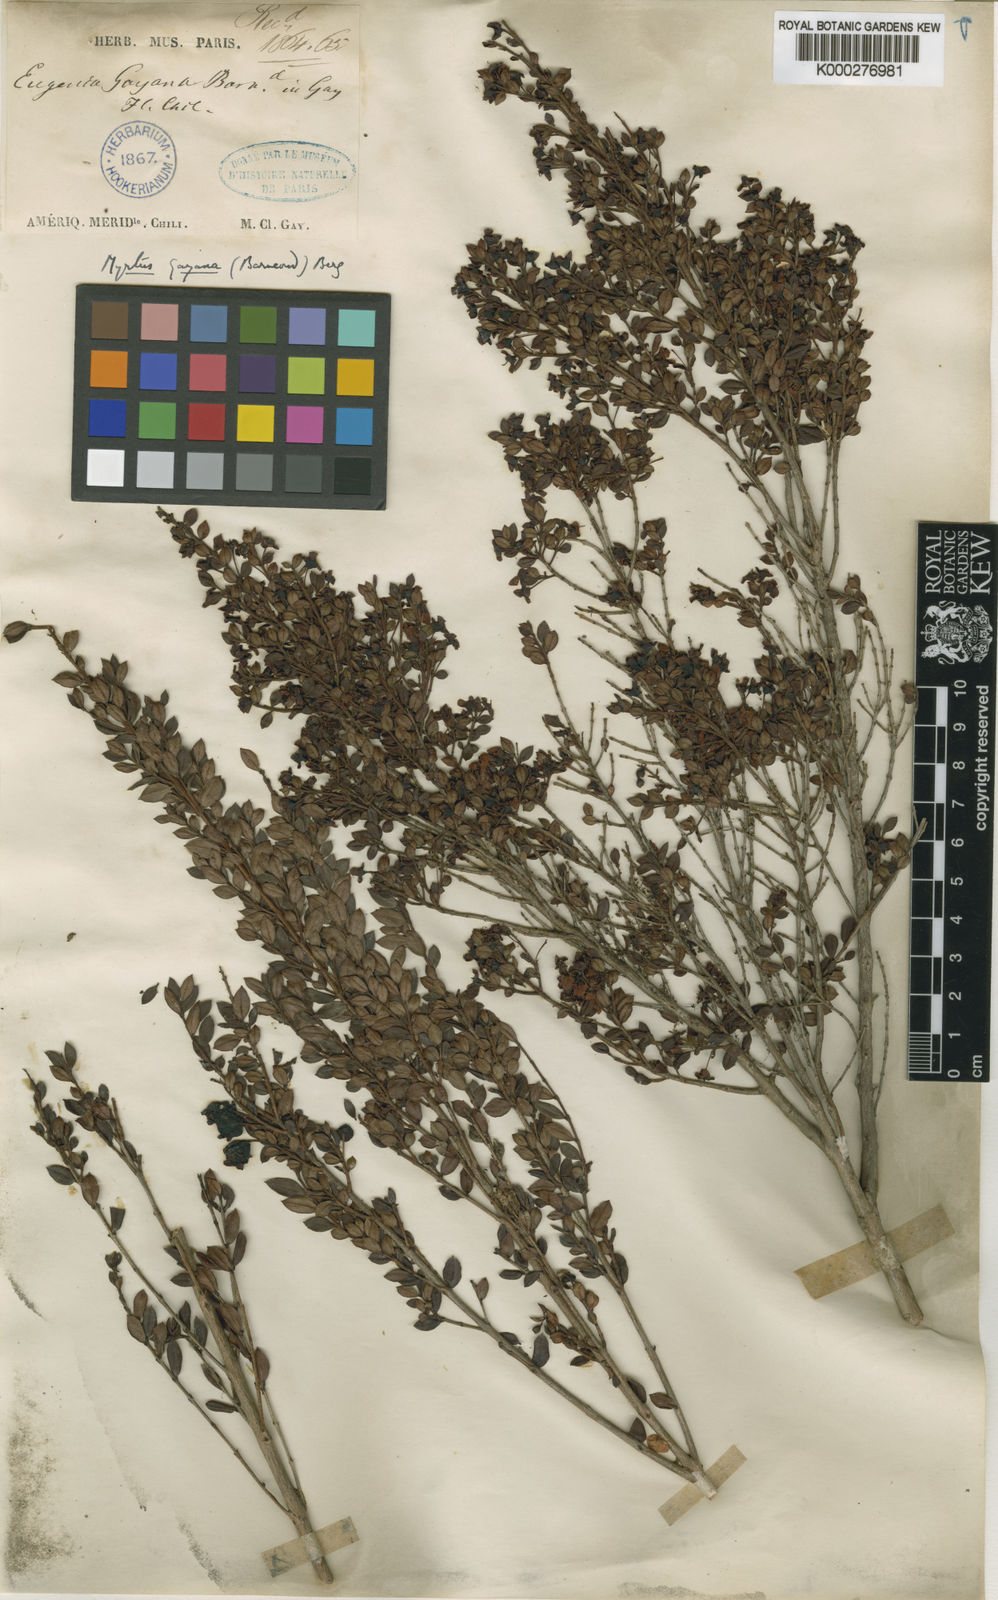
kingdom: Plantae
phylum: Tracheophyta
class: Magnoliopsida
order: Myrtales
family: Myrtaceae
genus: Luma
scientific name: Luma chequen
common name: Cheken
